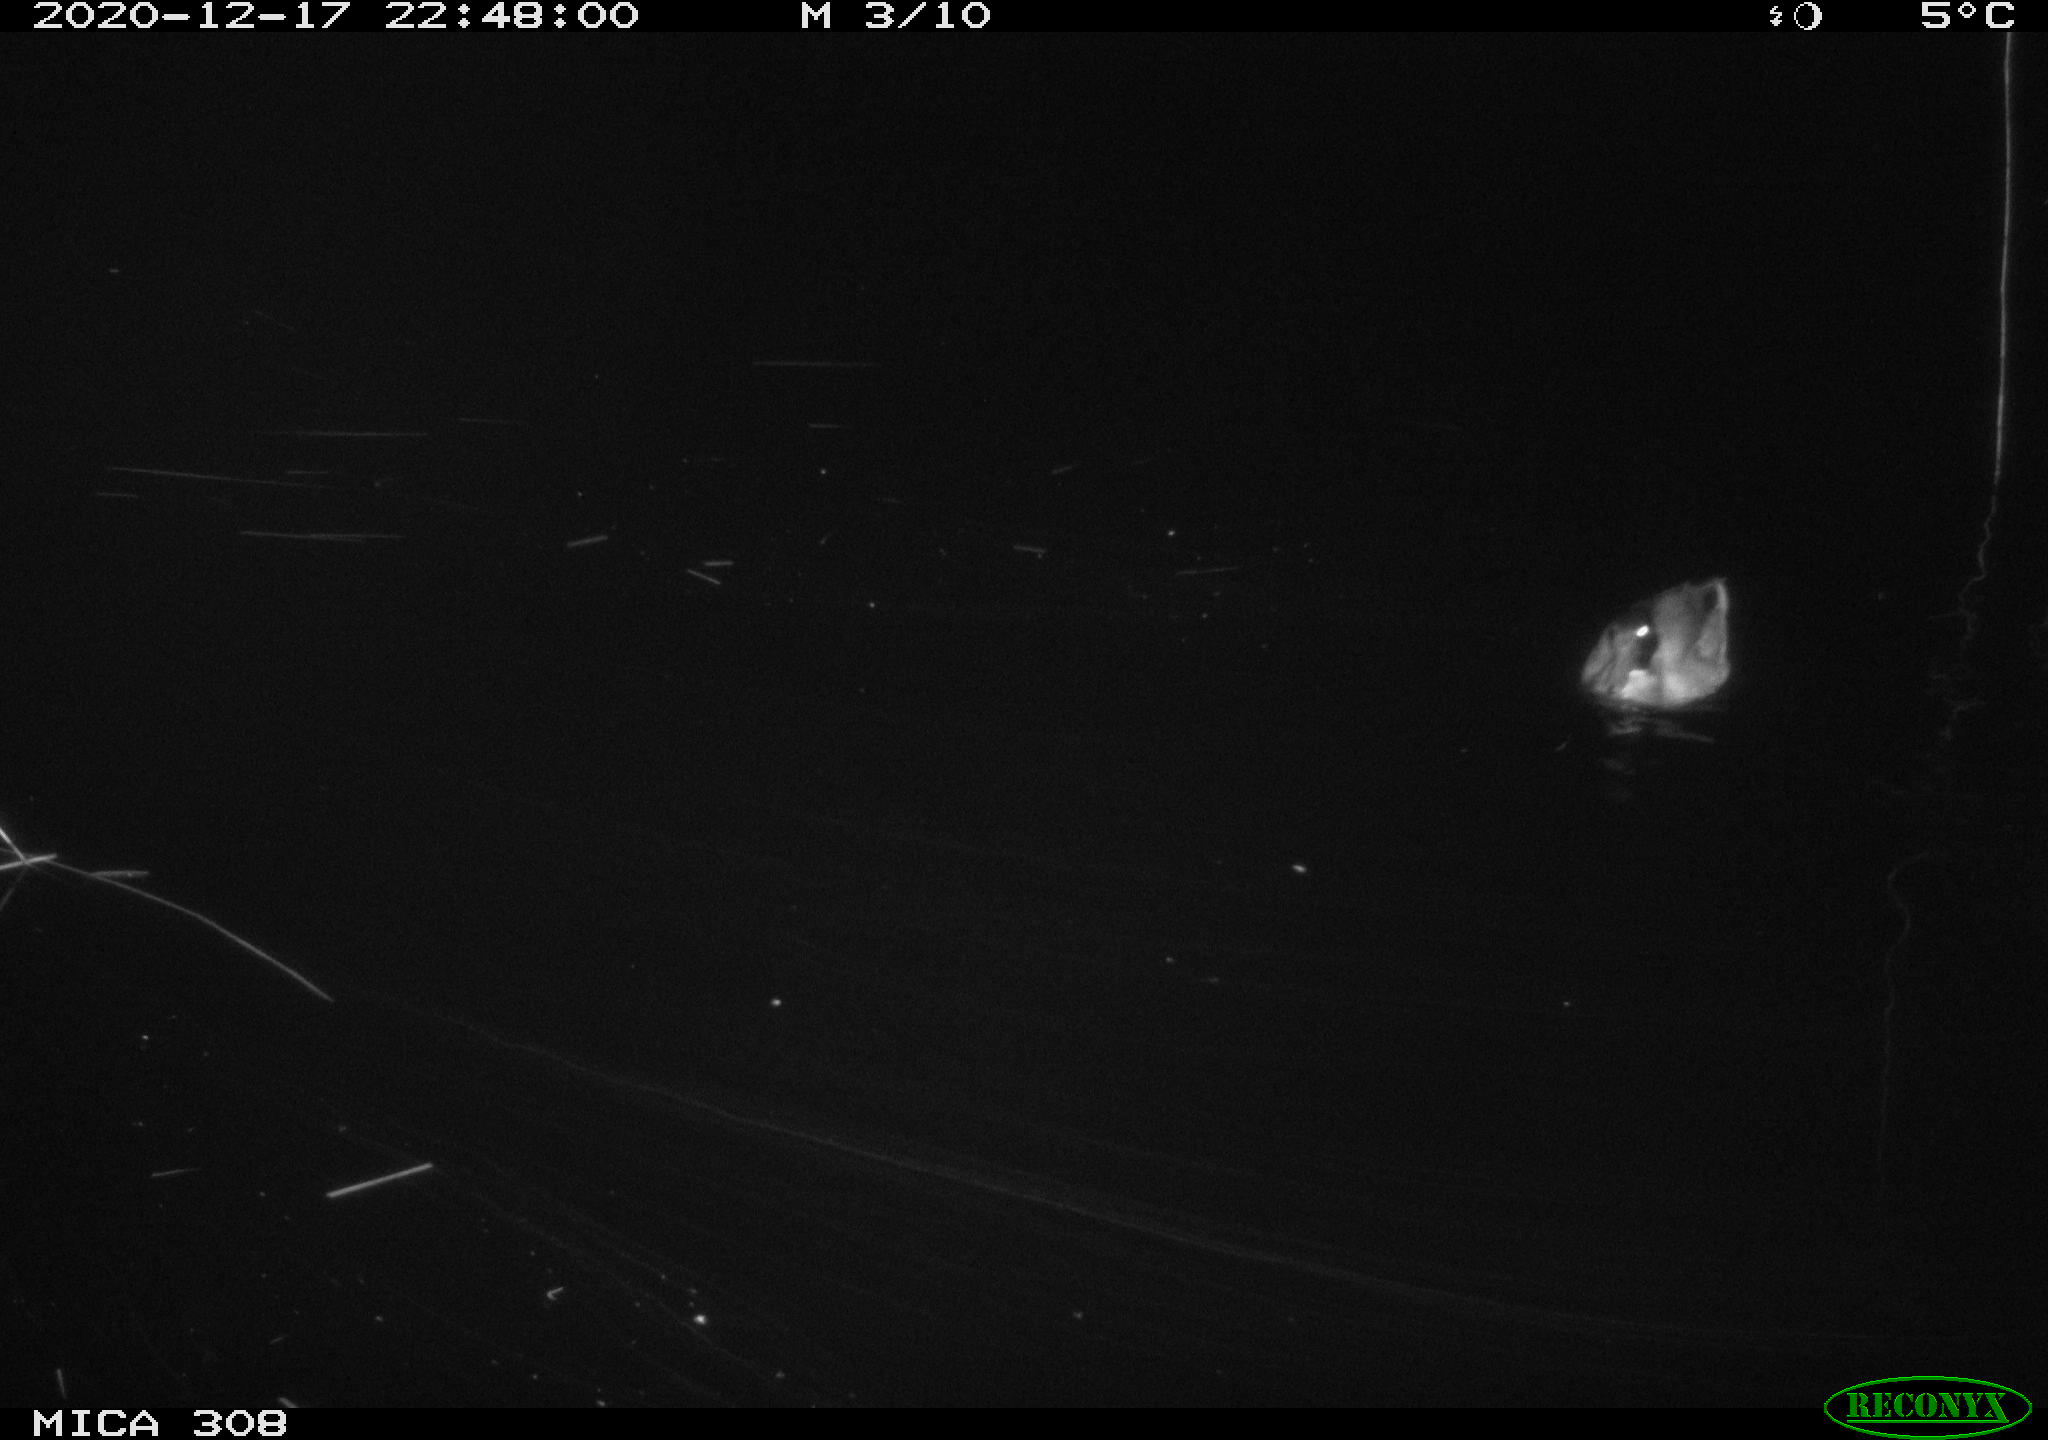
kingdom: Animalia
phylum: Chordata
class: Aves
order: Anseriformes
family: Anatidae
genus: Anas
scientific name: Anas platyrhynchos
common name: Mallard
